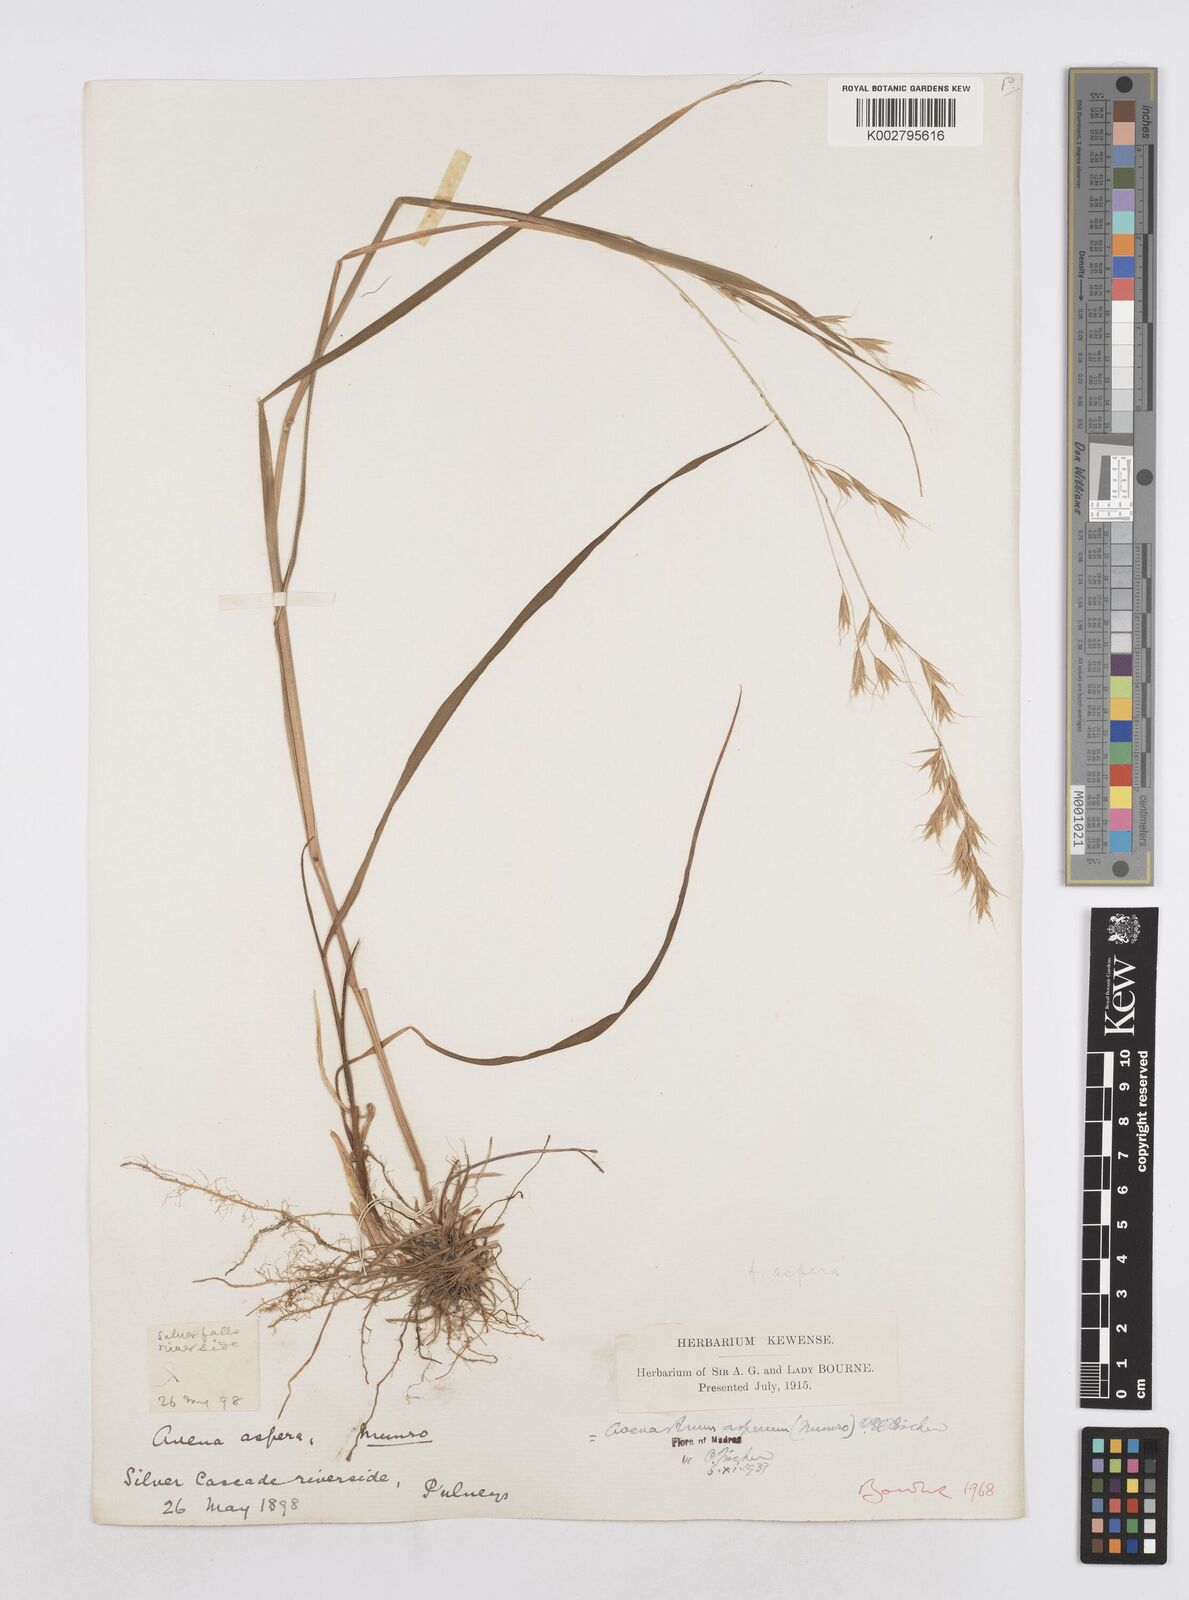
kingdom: Plantae
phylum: Tracheophyta
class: Liliopsida
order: Poales
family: Poaceae
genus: Helictotrichon
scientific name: Helictotrichon
